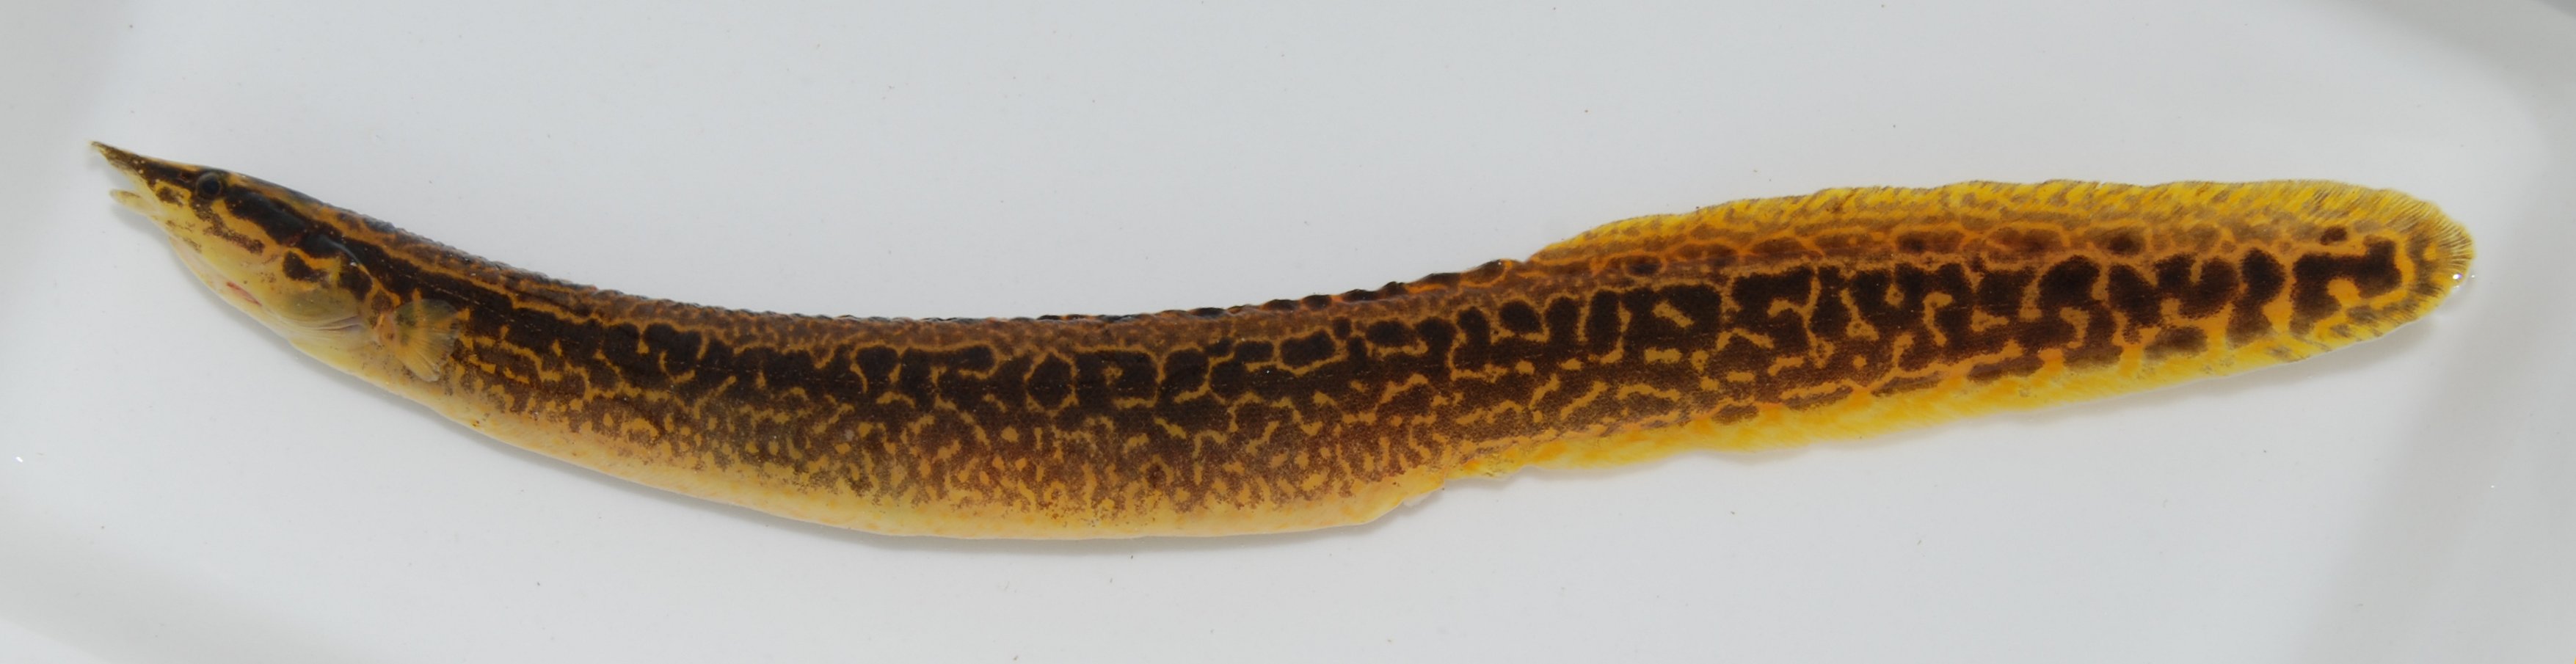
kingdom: Animalia
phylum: Chordata
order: Synbranchiformes
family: Mastacembelidae
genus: Mastacembelus
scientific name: Mastacembelus frenatus
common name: East african spiny eel
